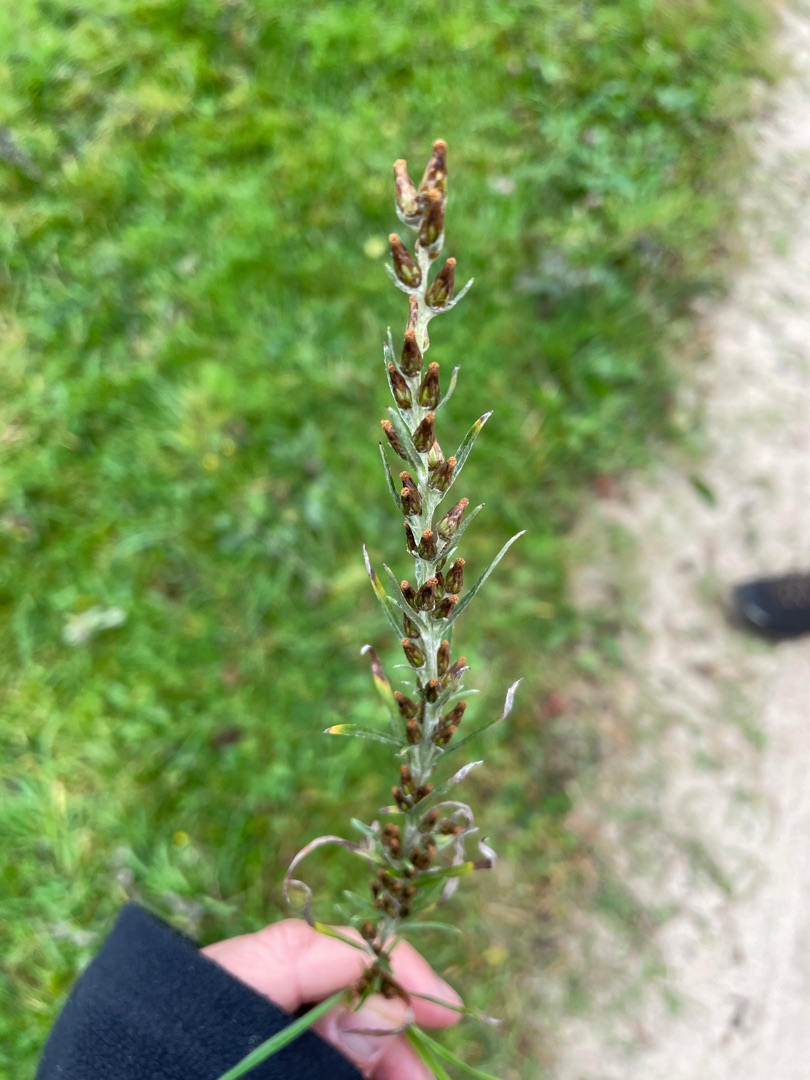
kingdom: Plantae
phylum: Tracheophyta
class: Magnoliopsida
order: Asterales
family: Asteraceae
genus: Omalotheca
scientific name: Omalotheca sylvatica
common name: Rank evighedsblomst
